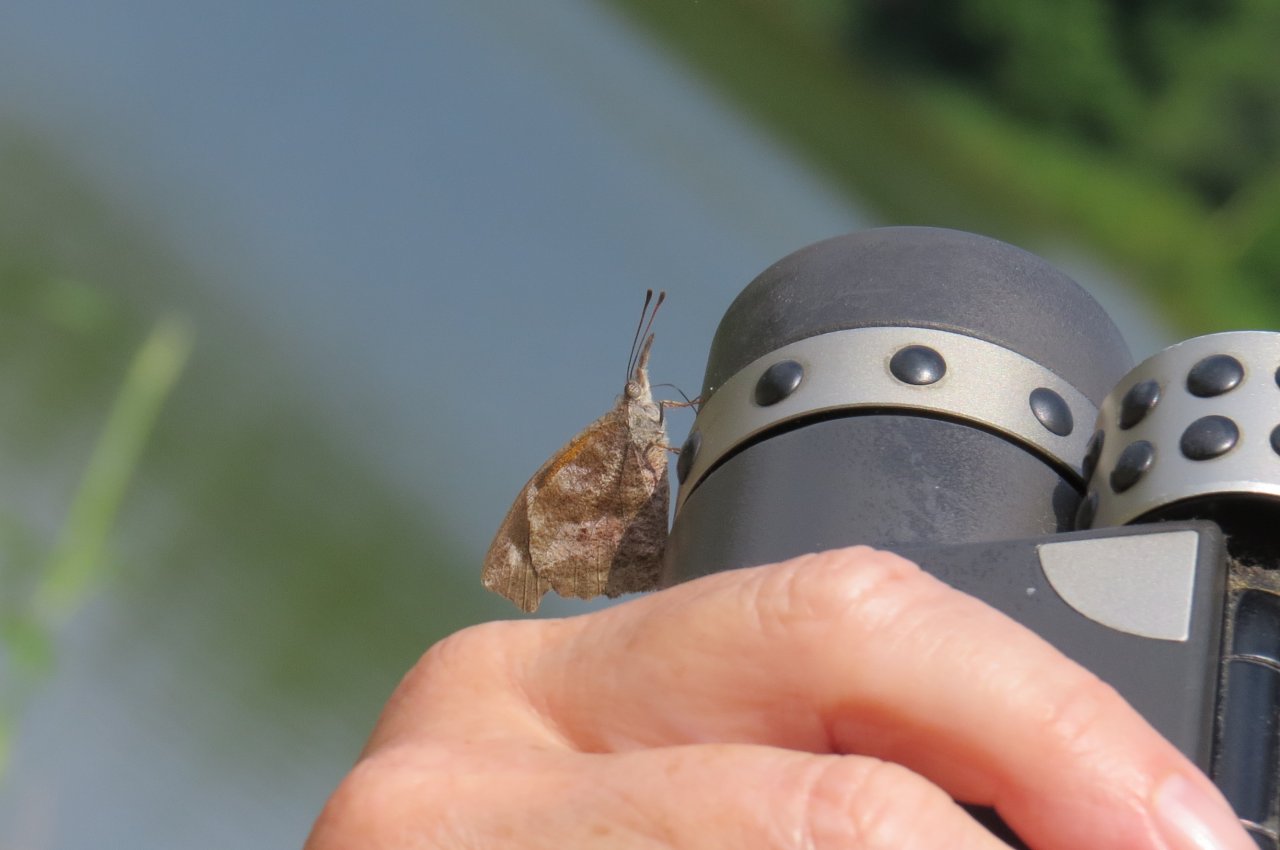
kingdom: Animalia
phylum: Arthropoda
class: Insecta
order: Lepidoptera
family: Nymphalidae
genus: Libytheana
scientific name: Libytheana carinenta
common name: American Snout
